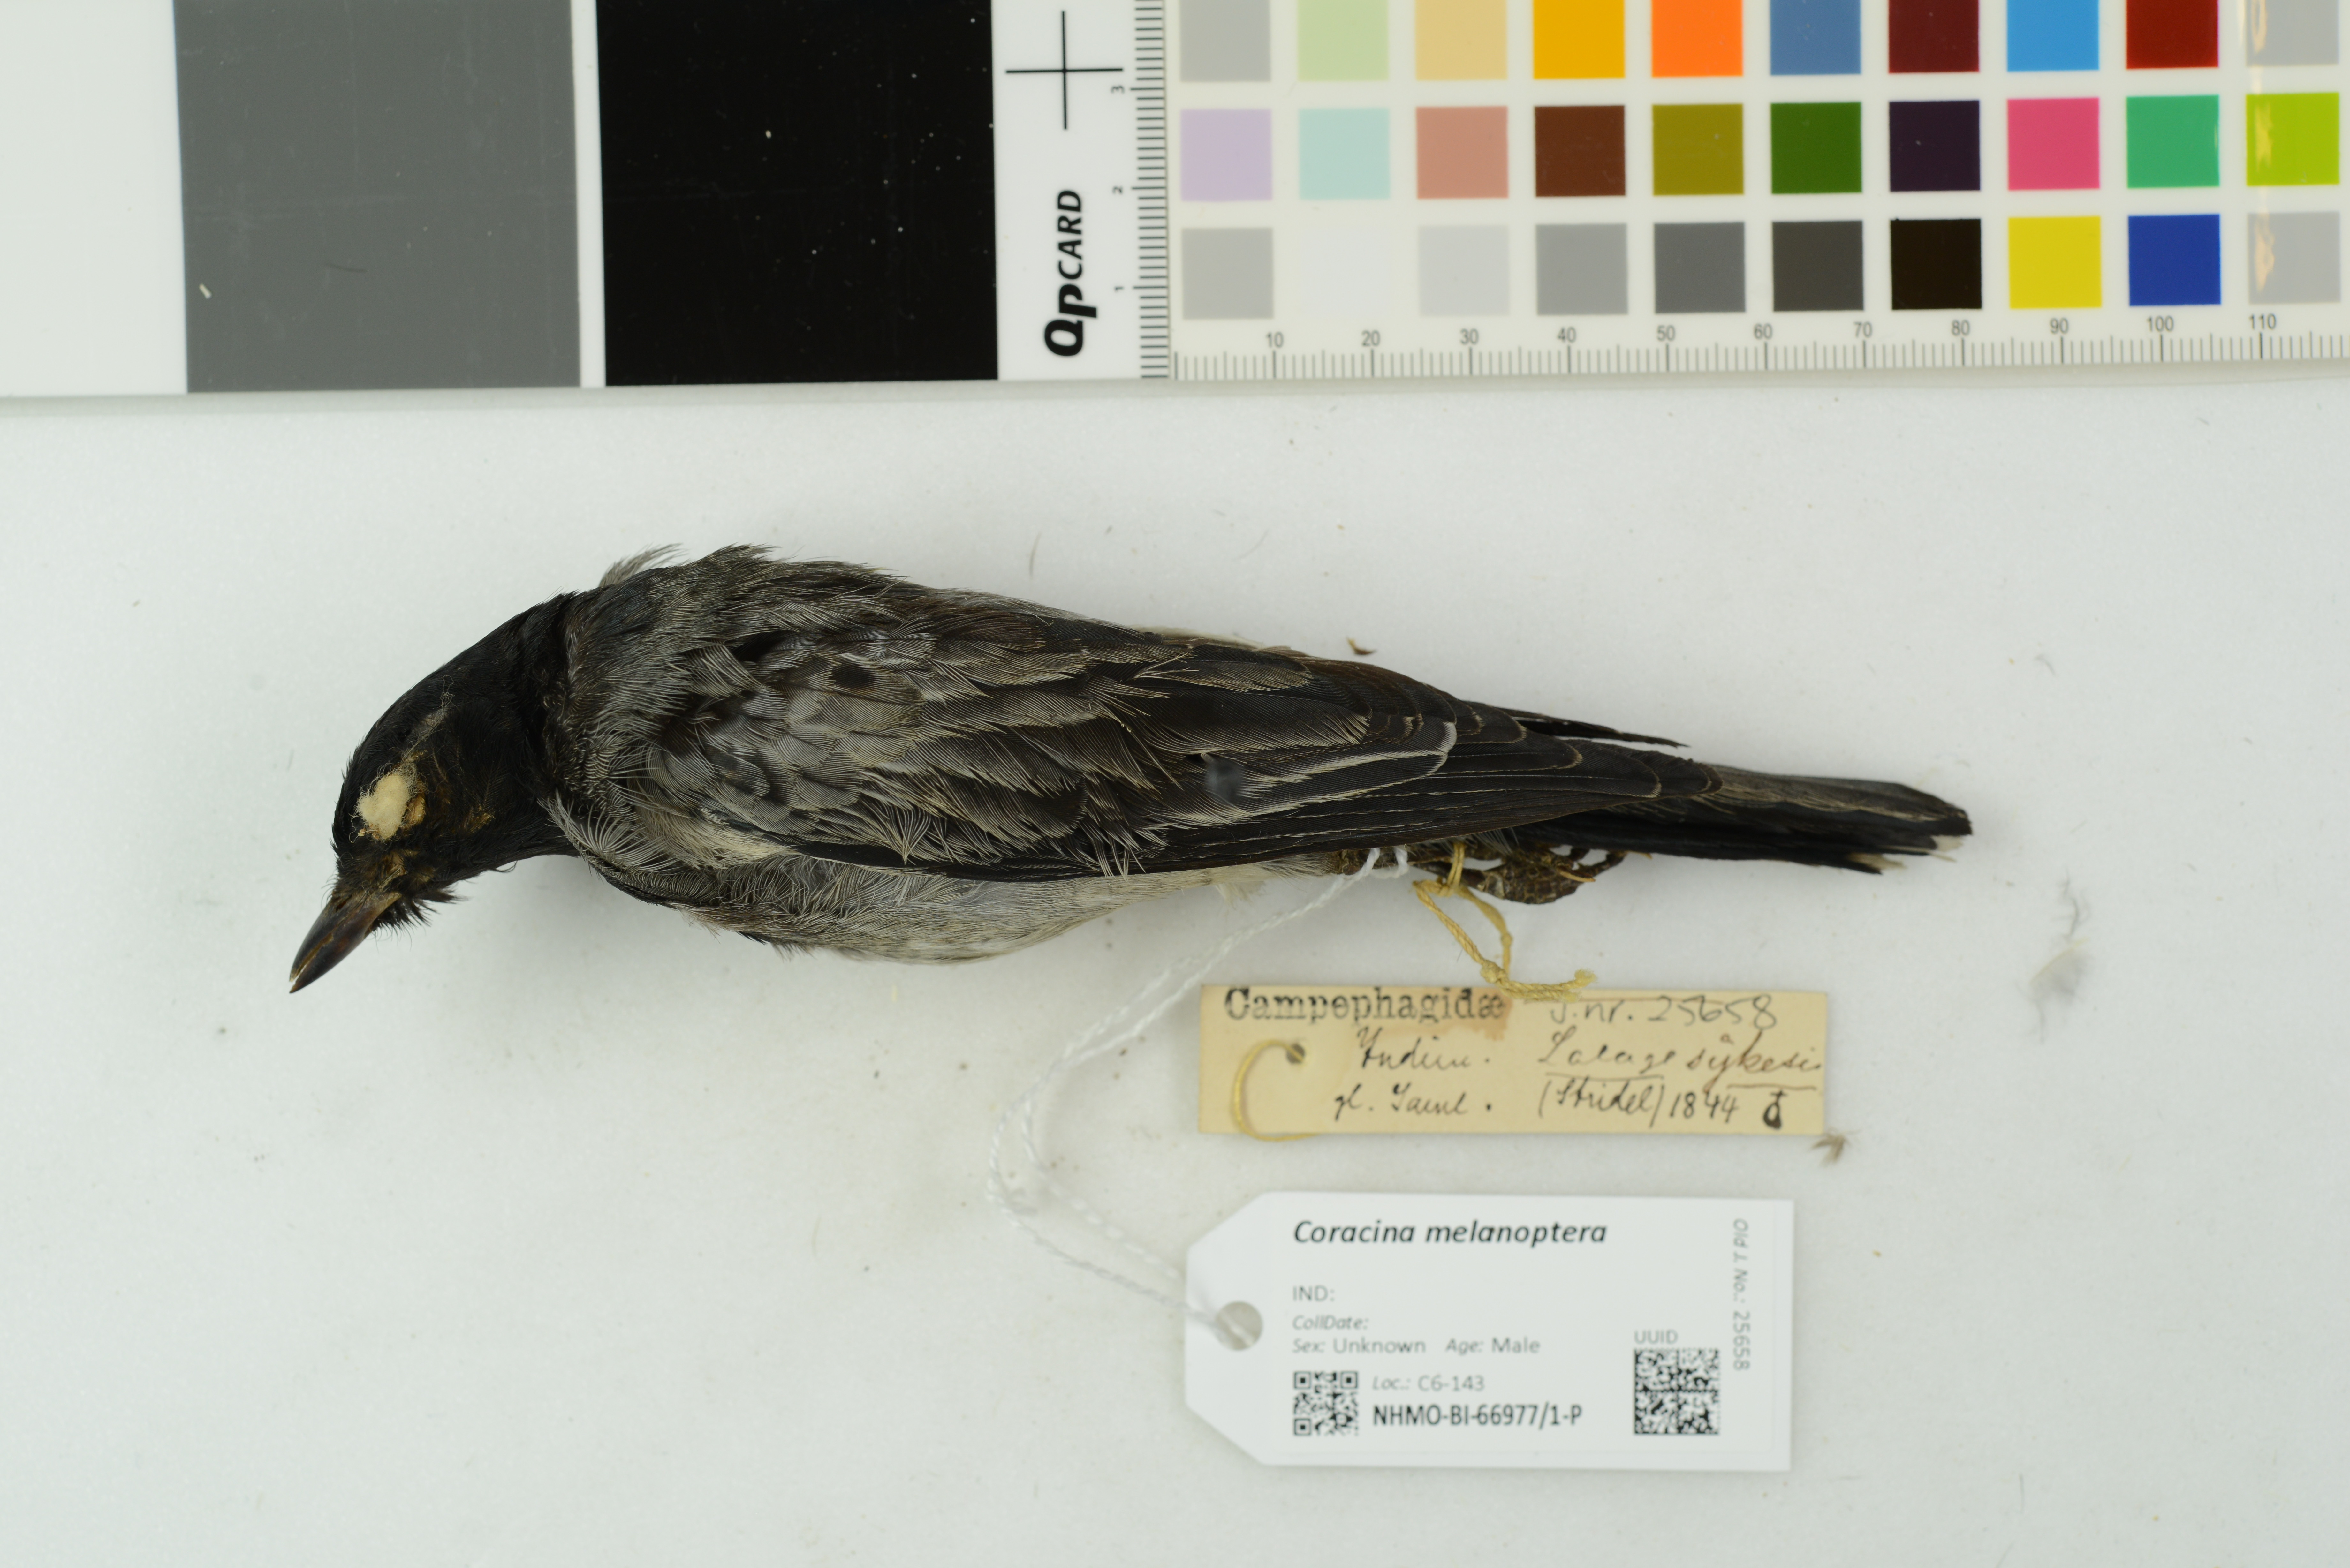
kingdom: Animalia
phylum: Chordata
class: Aves
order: Passeriformes
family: Campephagidae
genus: Coracina
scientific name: Coracina melanoptera
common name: Black-headed cuckooshrike
